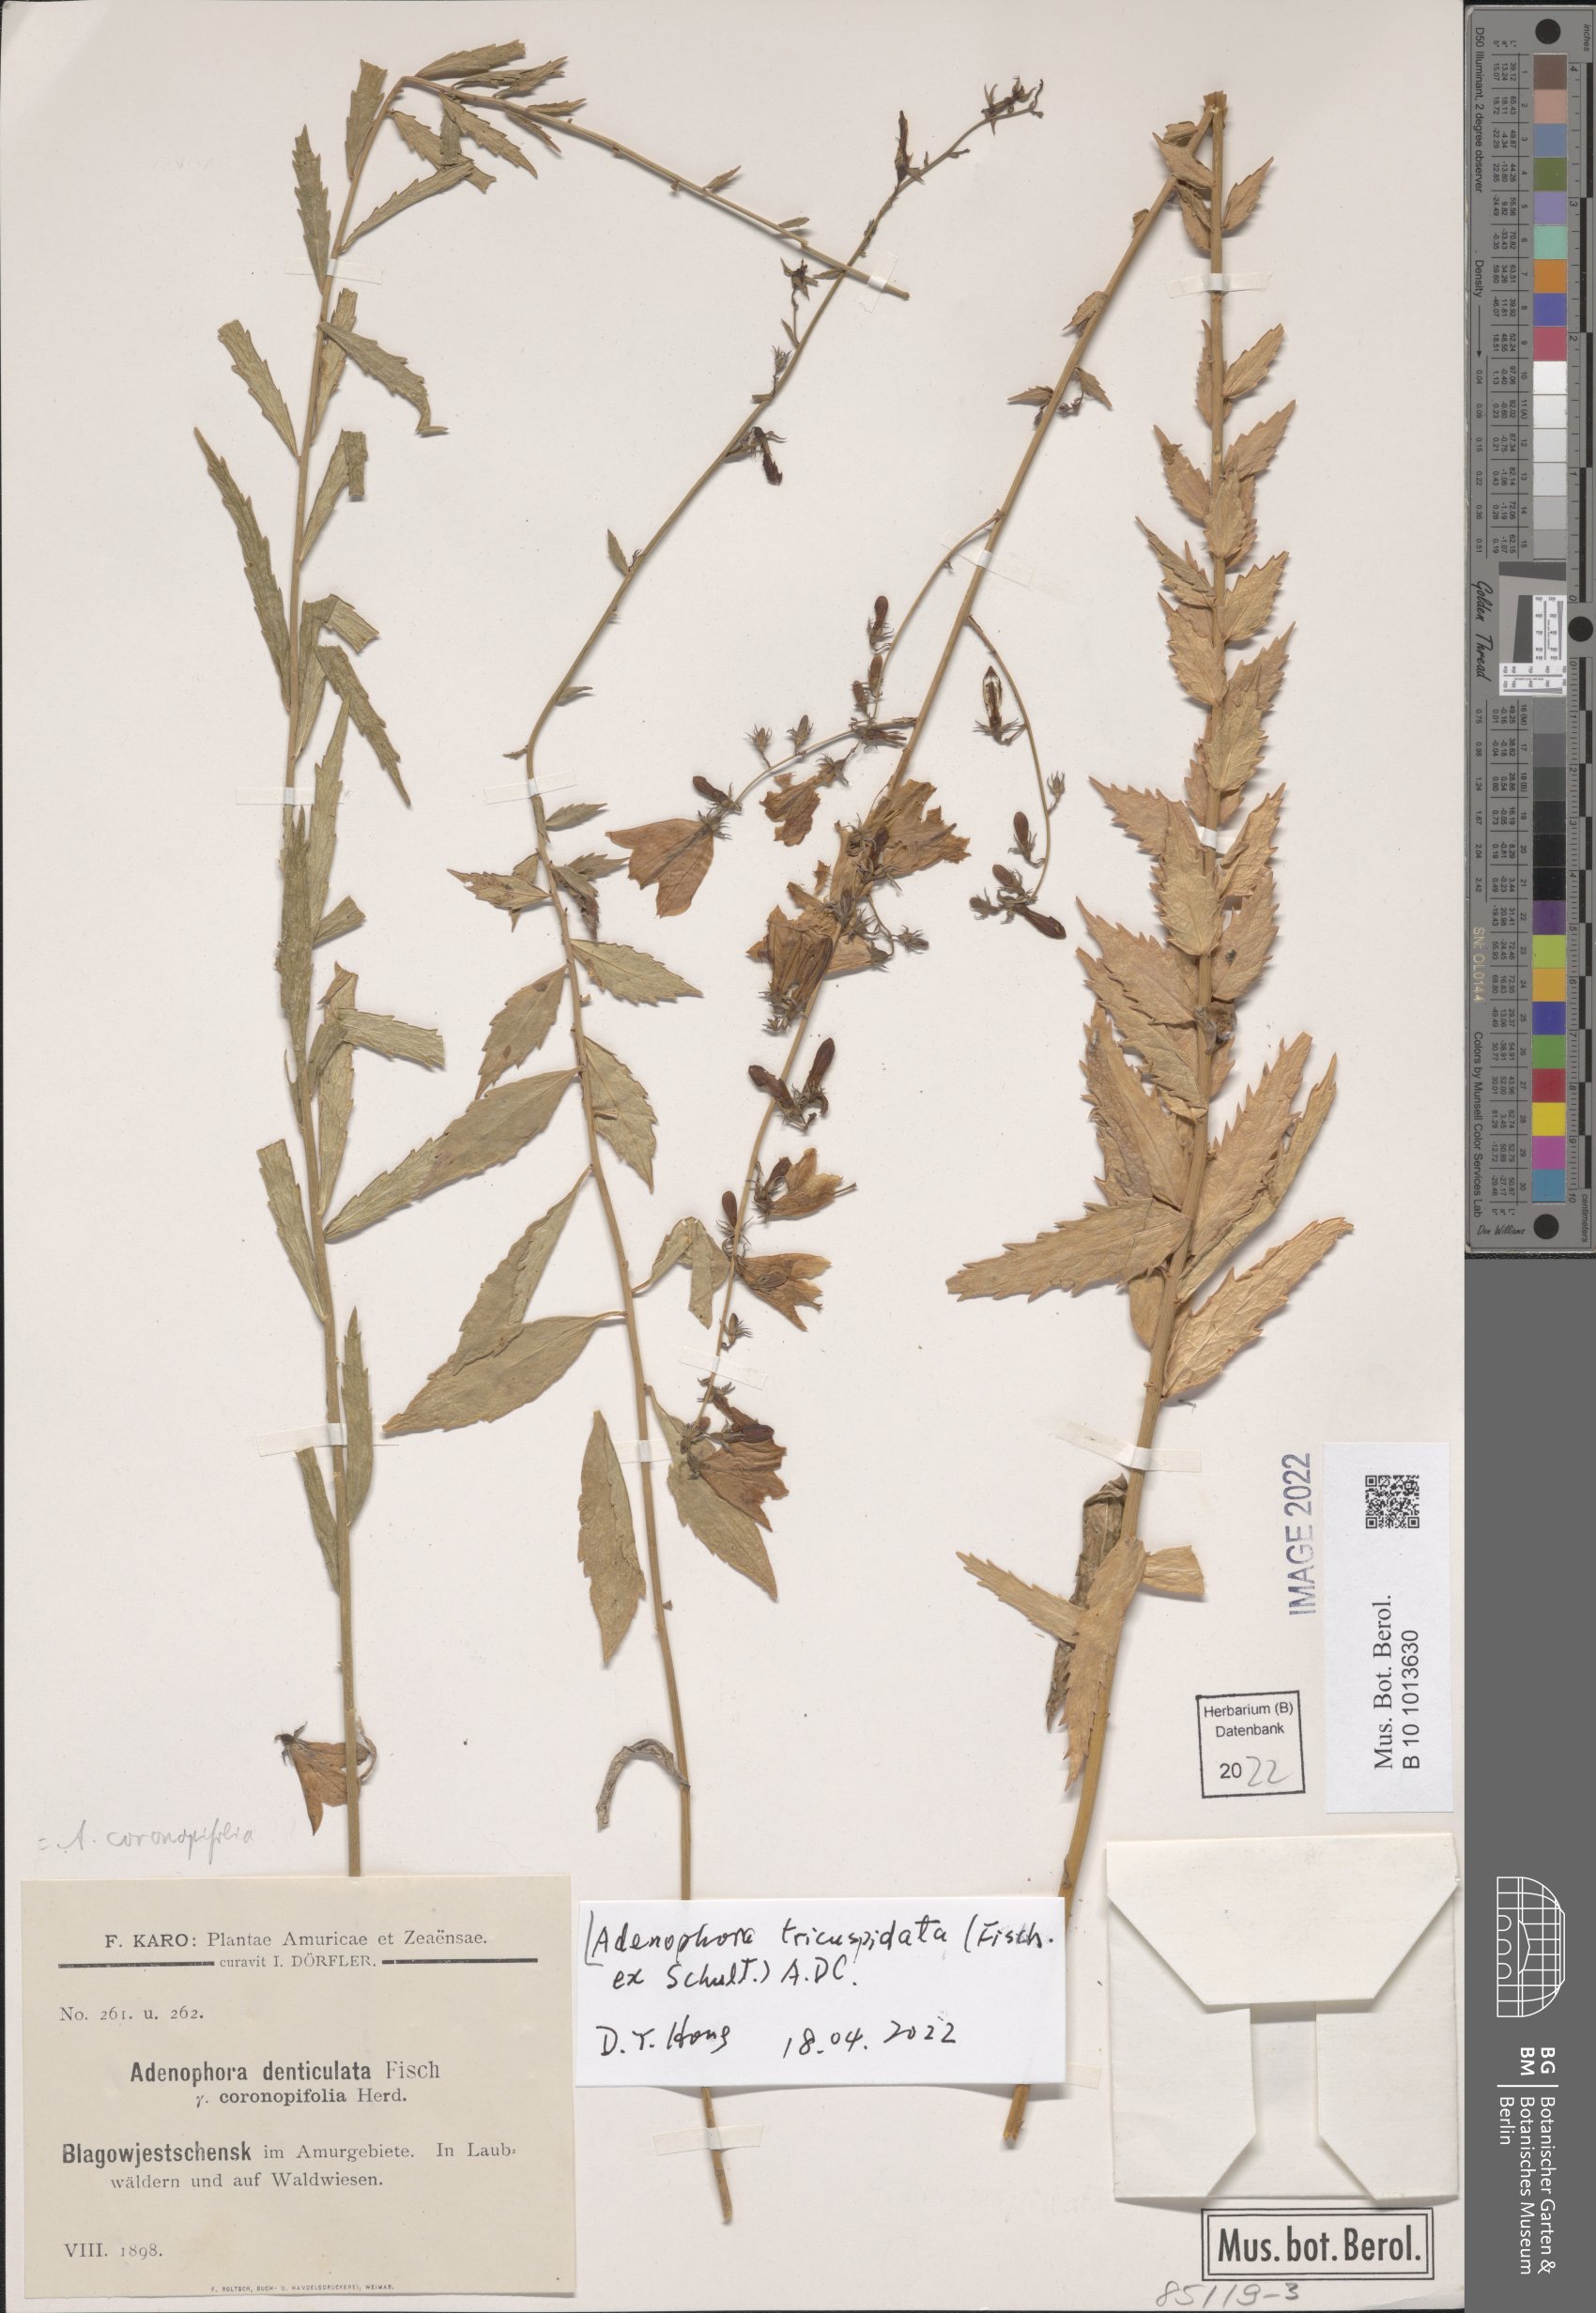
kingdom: Plantae
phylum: Tracheophyta
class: Magnoliopsida
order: Asterales
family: Campanulaceae
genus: Adenophora
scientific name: Adenophora tricuspidata
